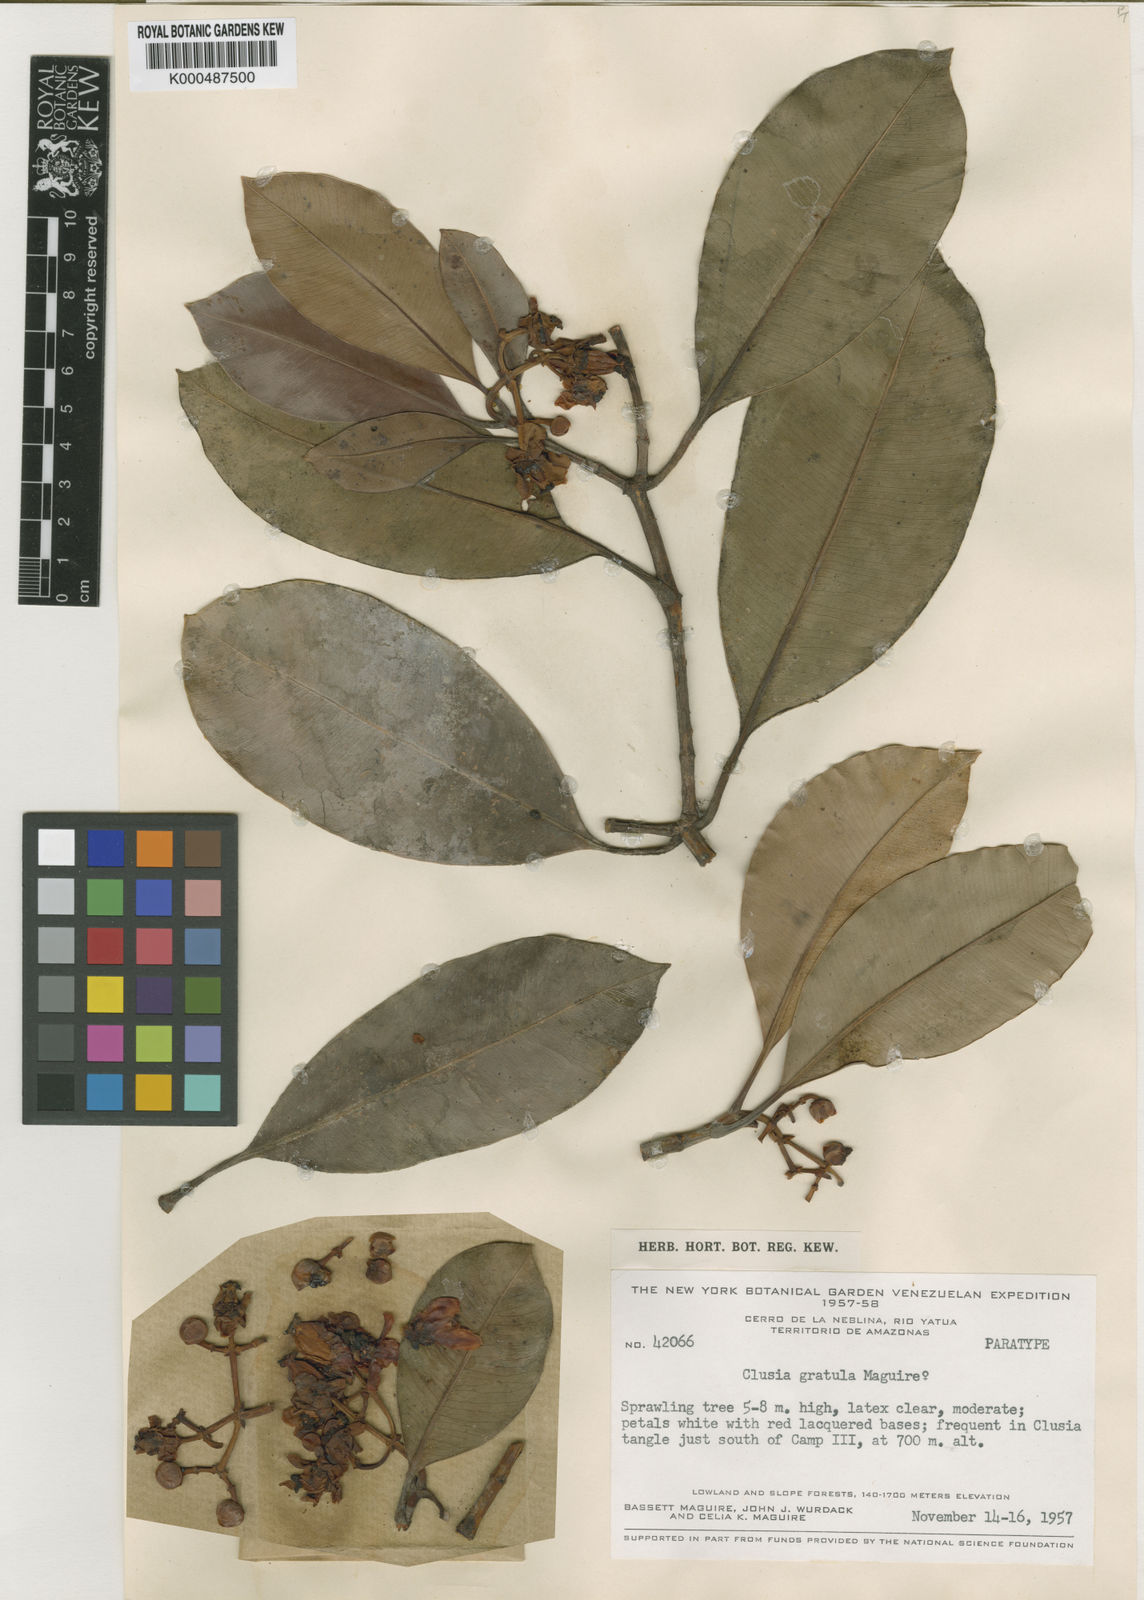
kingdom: Plantae
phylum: Tracheophyta
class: Magnoliopsida
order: Malpighiales
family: Clusiaceae
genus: Clusia
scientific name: Clusia gratula
